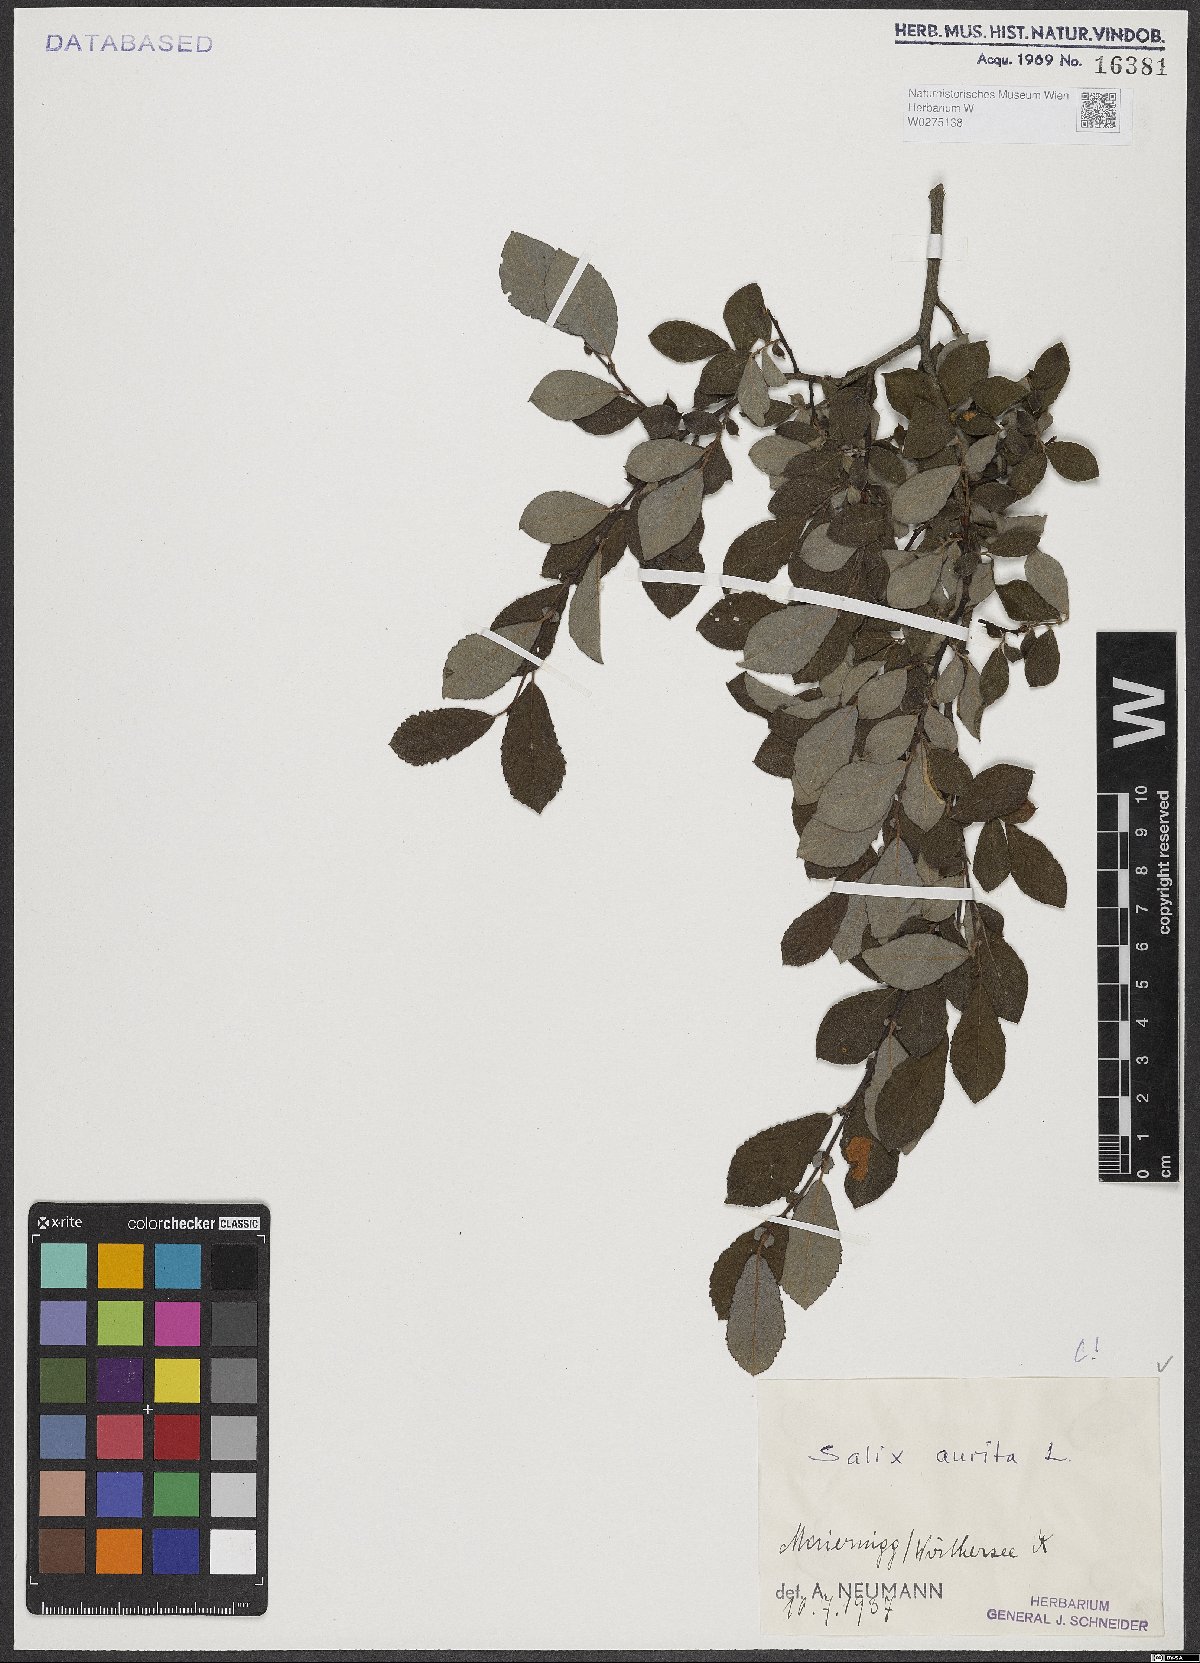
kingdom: Plantae
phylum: Tracheophyta
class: Magnoliopsida
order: Malpighiales
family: Salicaceae
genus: Salix
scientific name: Salix aurita
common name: Eared willow
